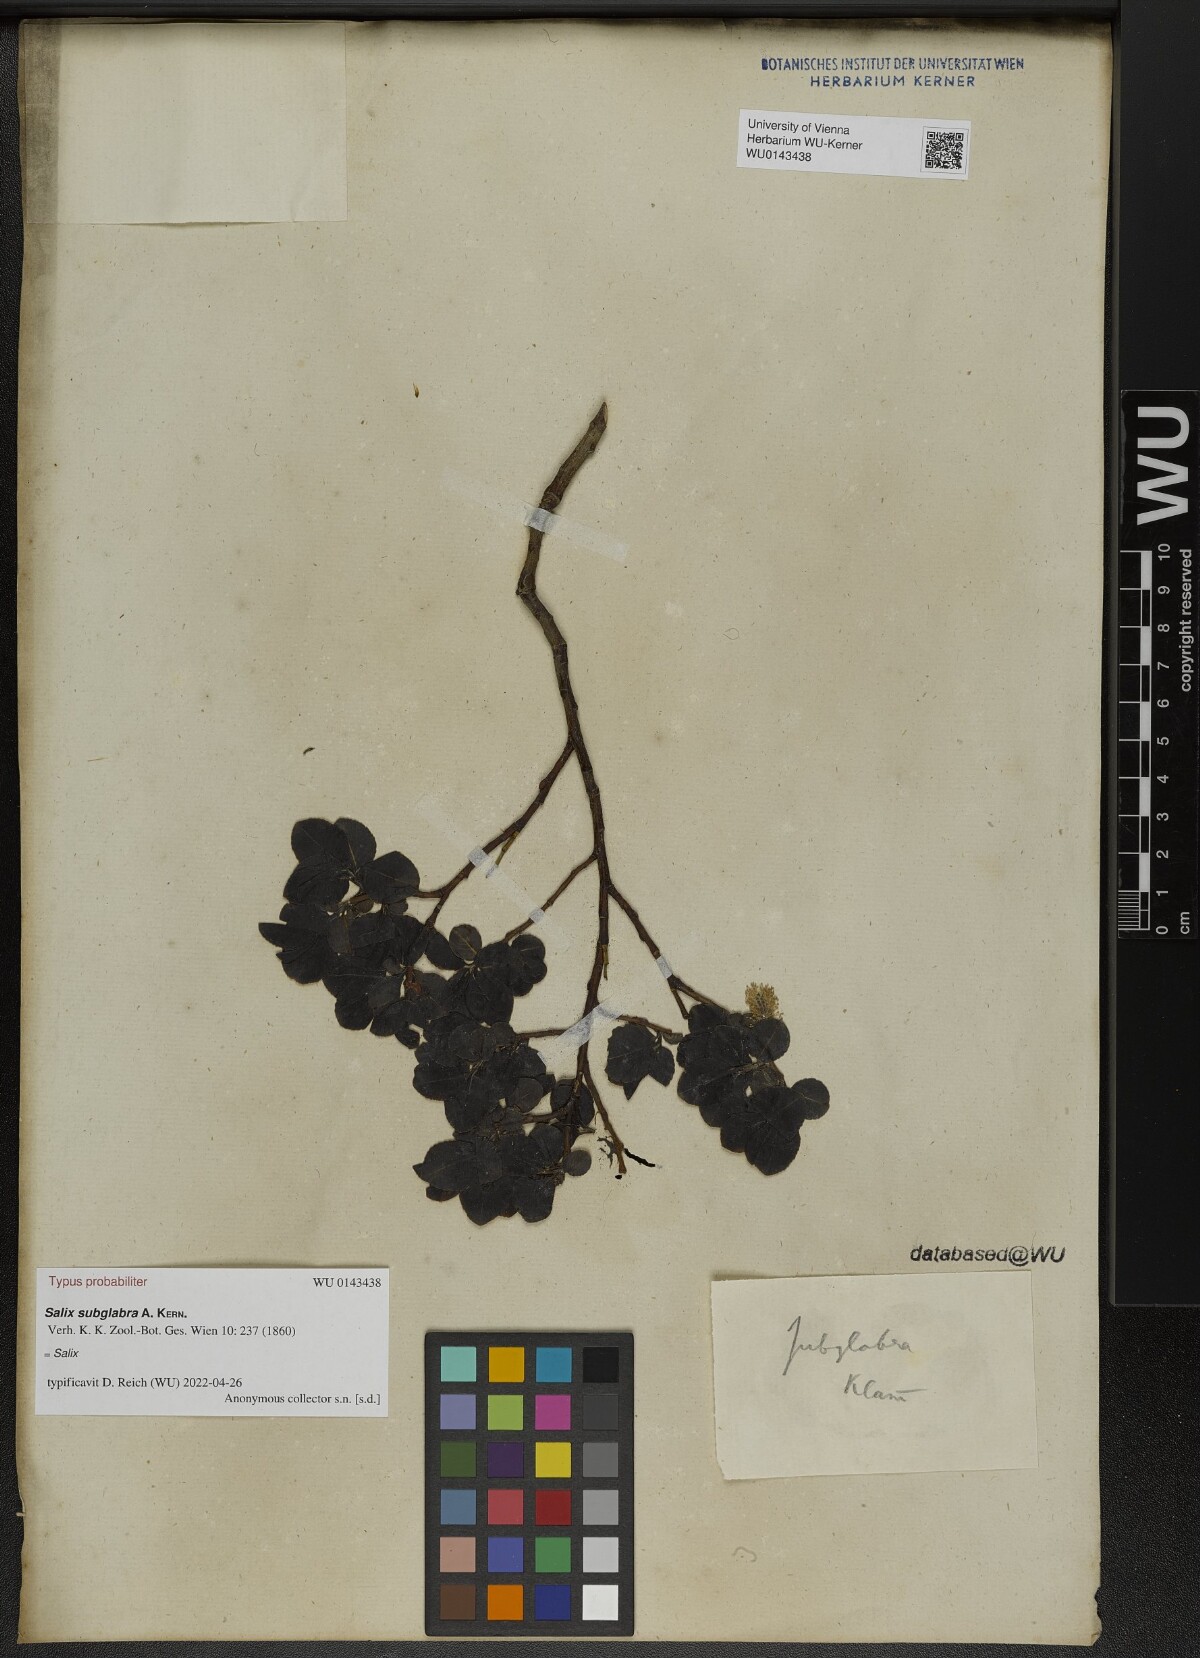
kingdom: Plantae
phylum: Tracheophyta
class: Magnoliopsida
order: Malpighiales
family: Salicaceae
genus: Salix
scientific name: Salix subglabra
